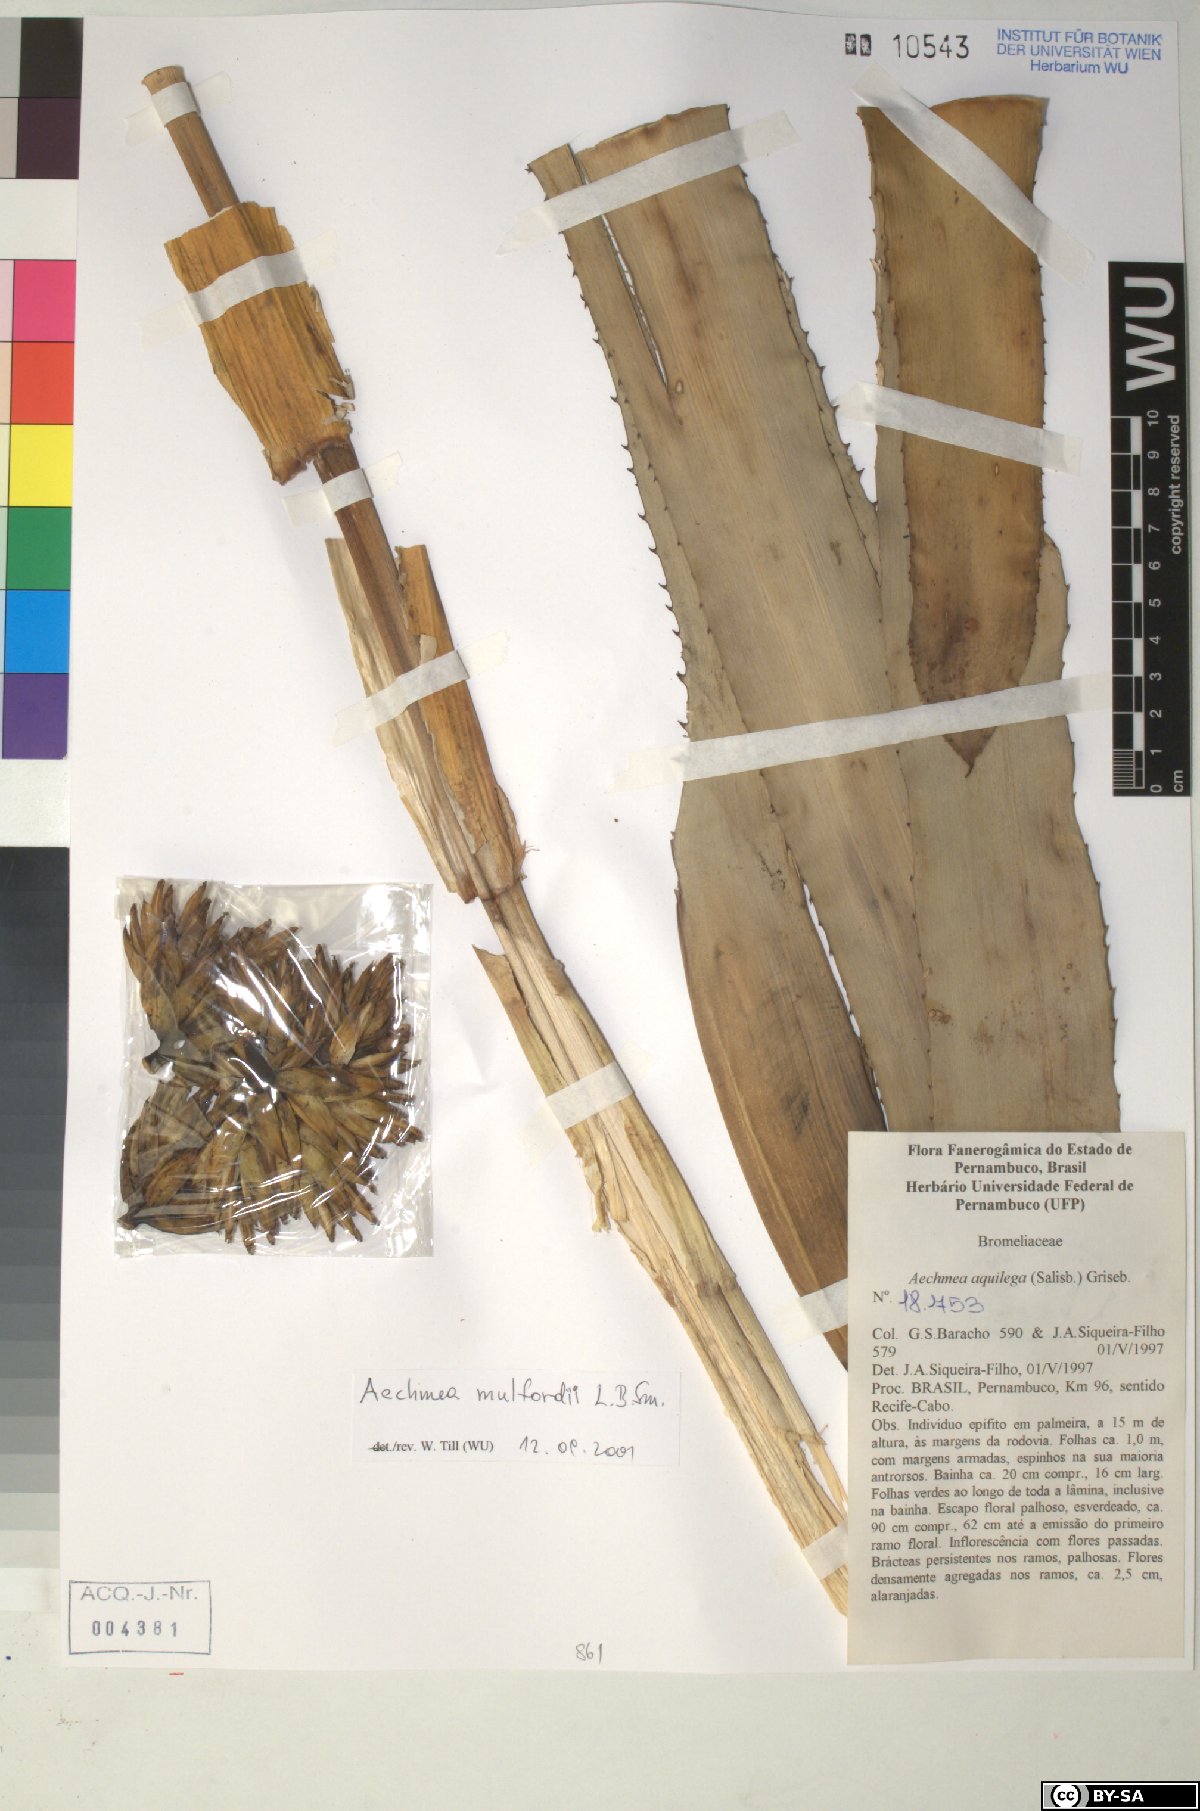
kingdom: Plantae
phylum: Tracheophyta
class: Liliopsida
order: Poales
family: Bromeliaceae
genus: Aechmea
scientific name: Aechmea aquilega
